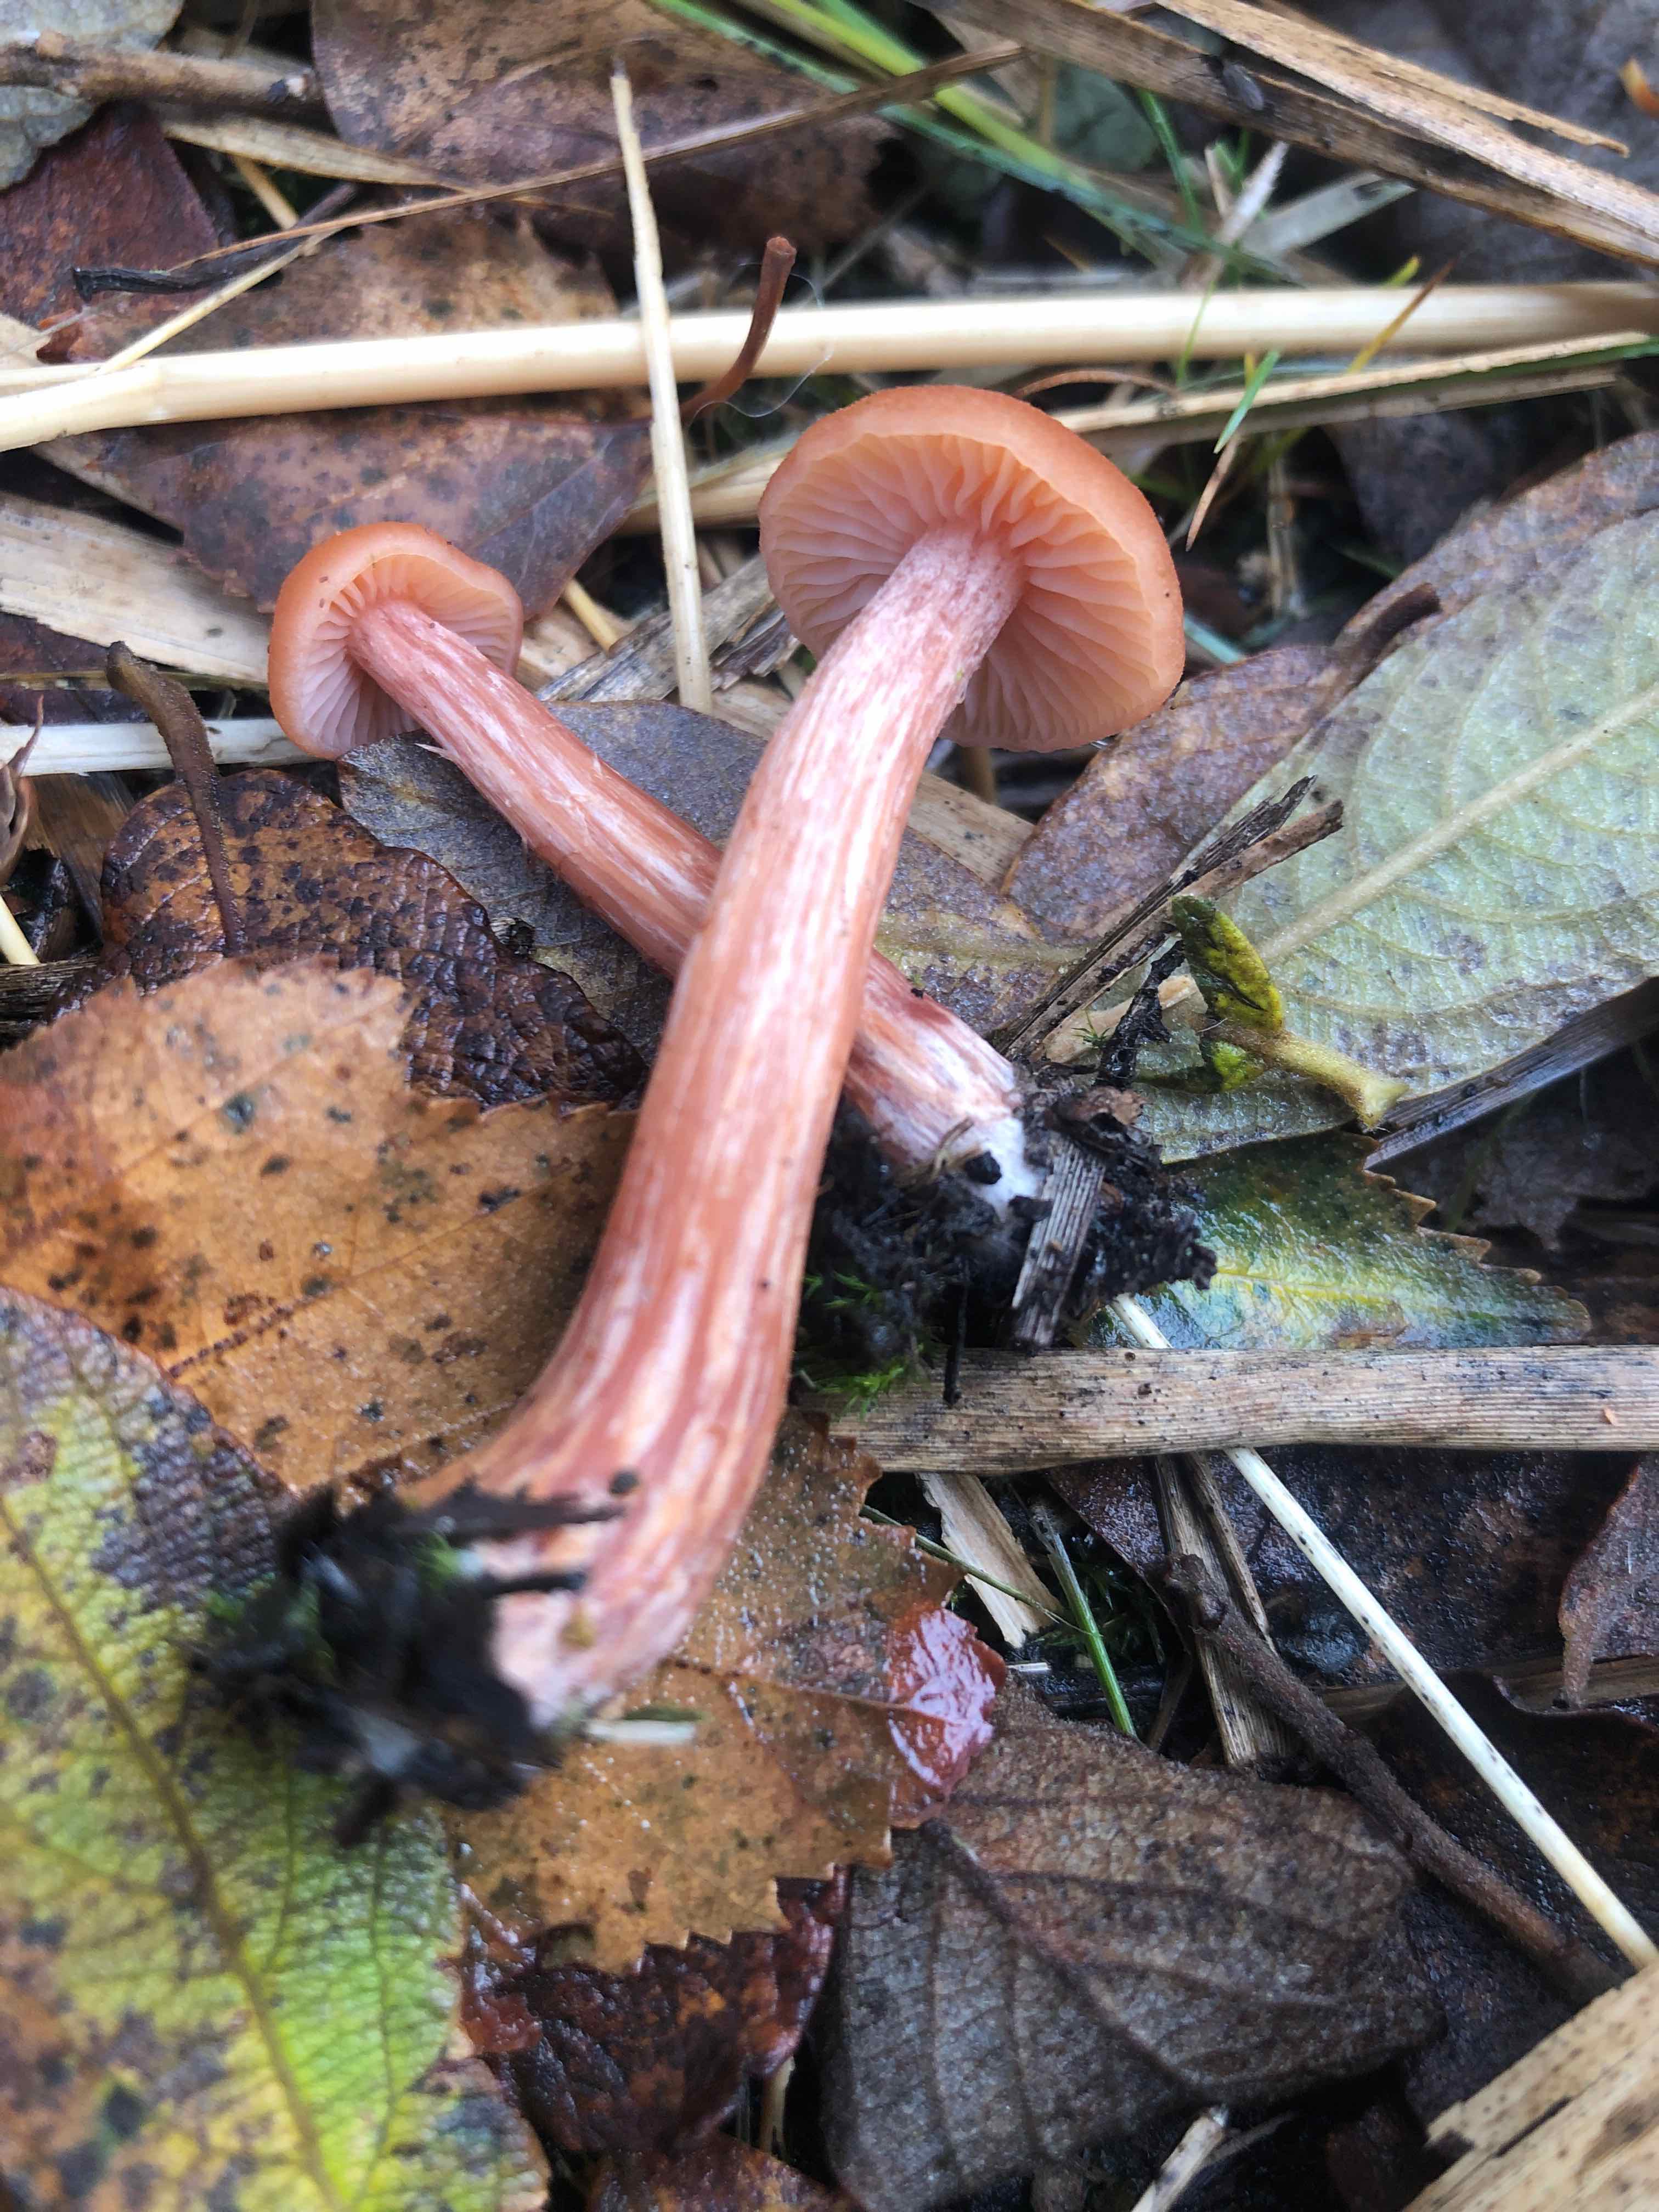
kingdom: Fungi
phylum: Basidiomycota
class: Agaricomycetes
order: Agaricales
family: Hydnangiaceae
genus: Laccaria
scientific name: Laccaria
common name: ametysthat
